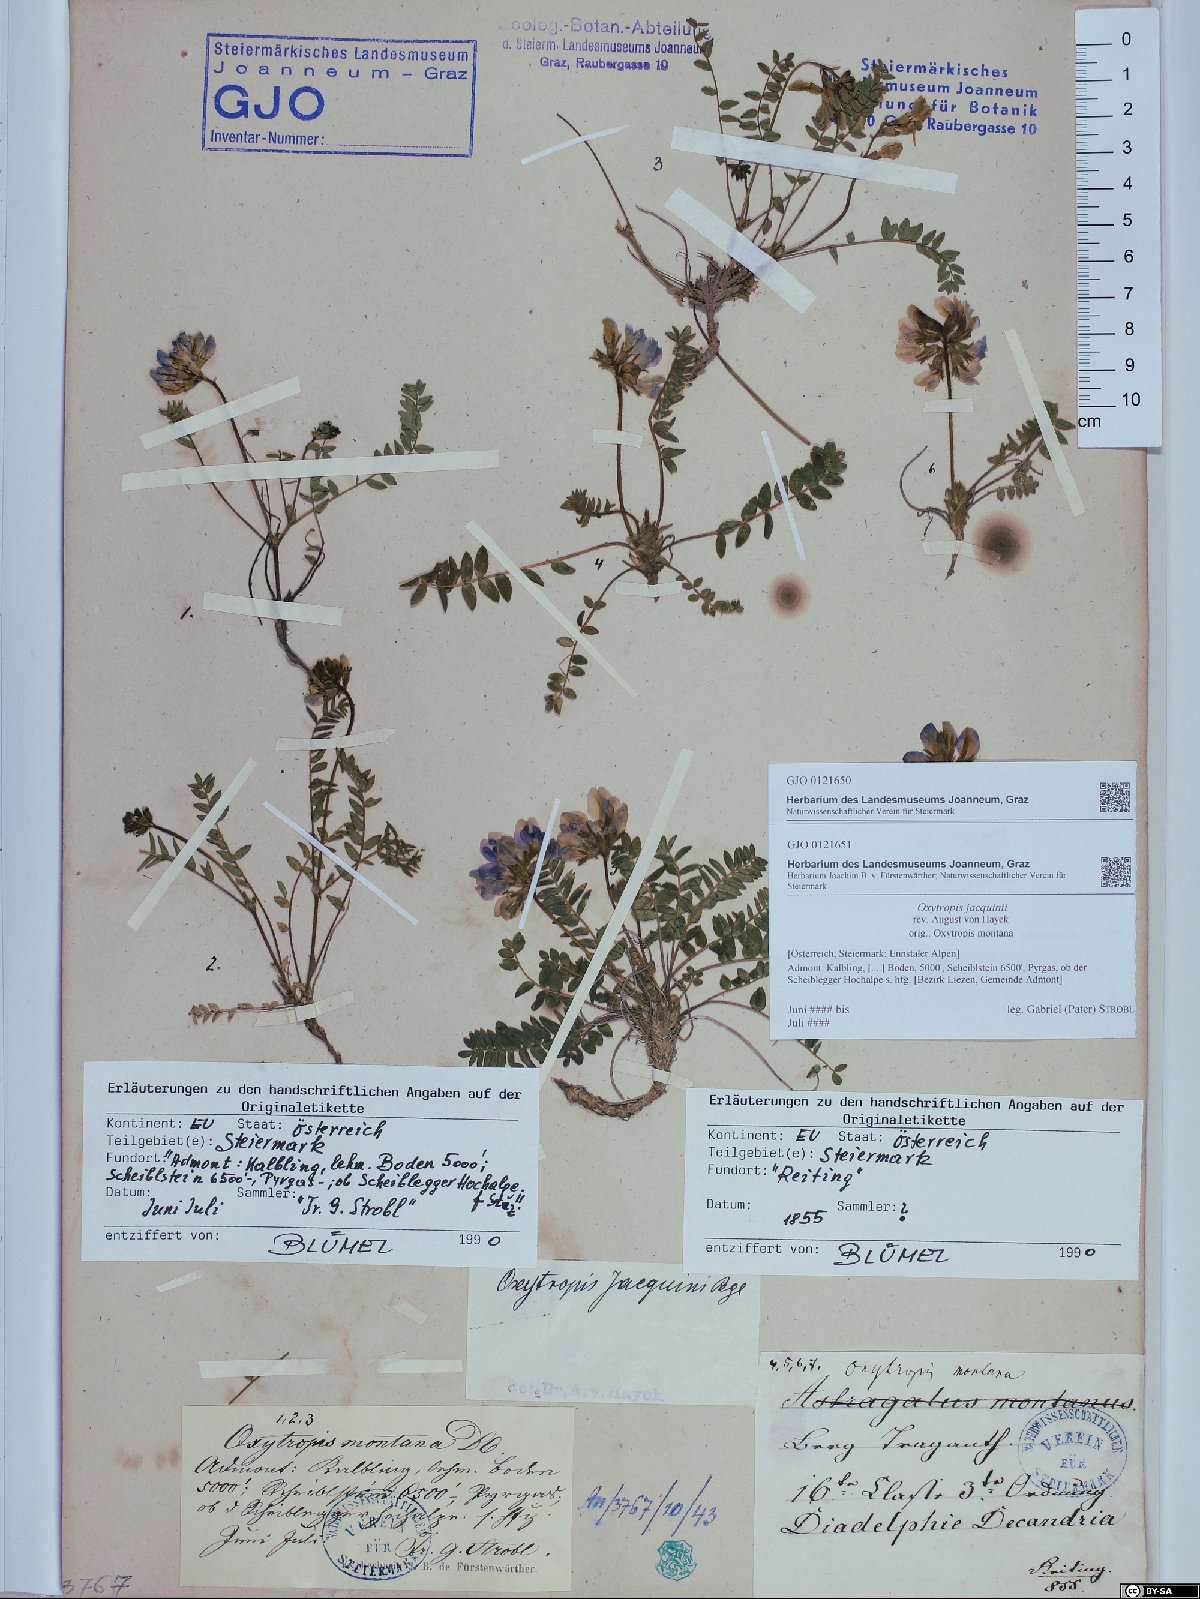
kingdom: Plantae
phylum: Tracheophyta
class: Magnoliopsida
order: Fabales
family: Fabaceae
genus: Oxytropis
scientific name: Oxytropis montana
